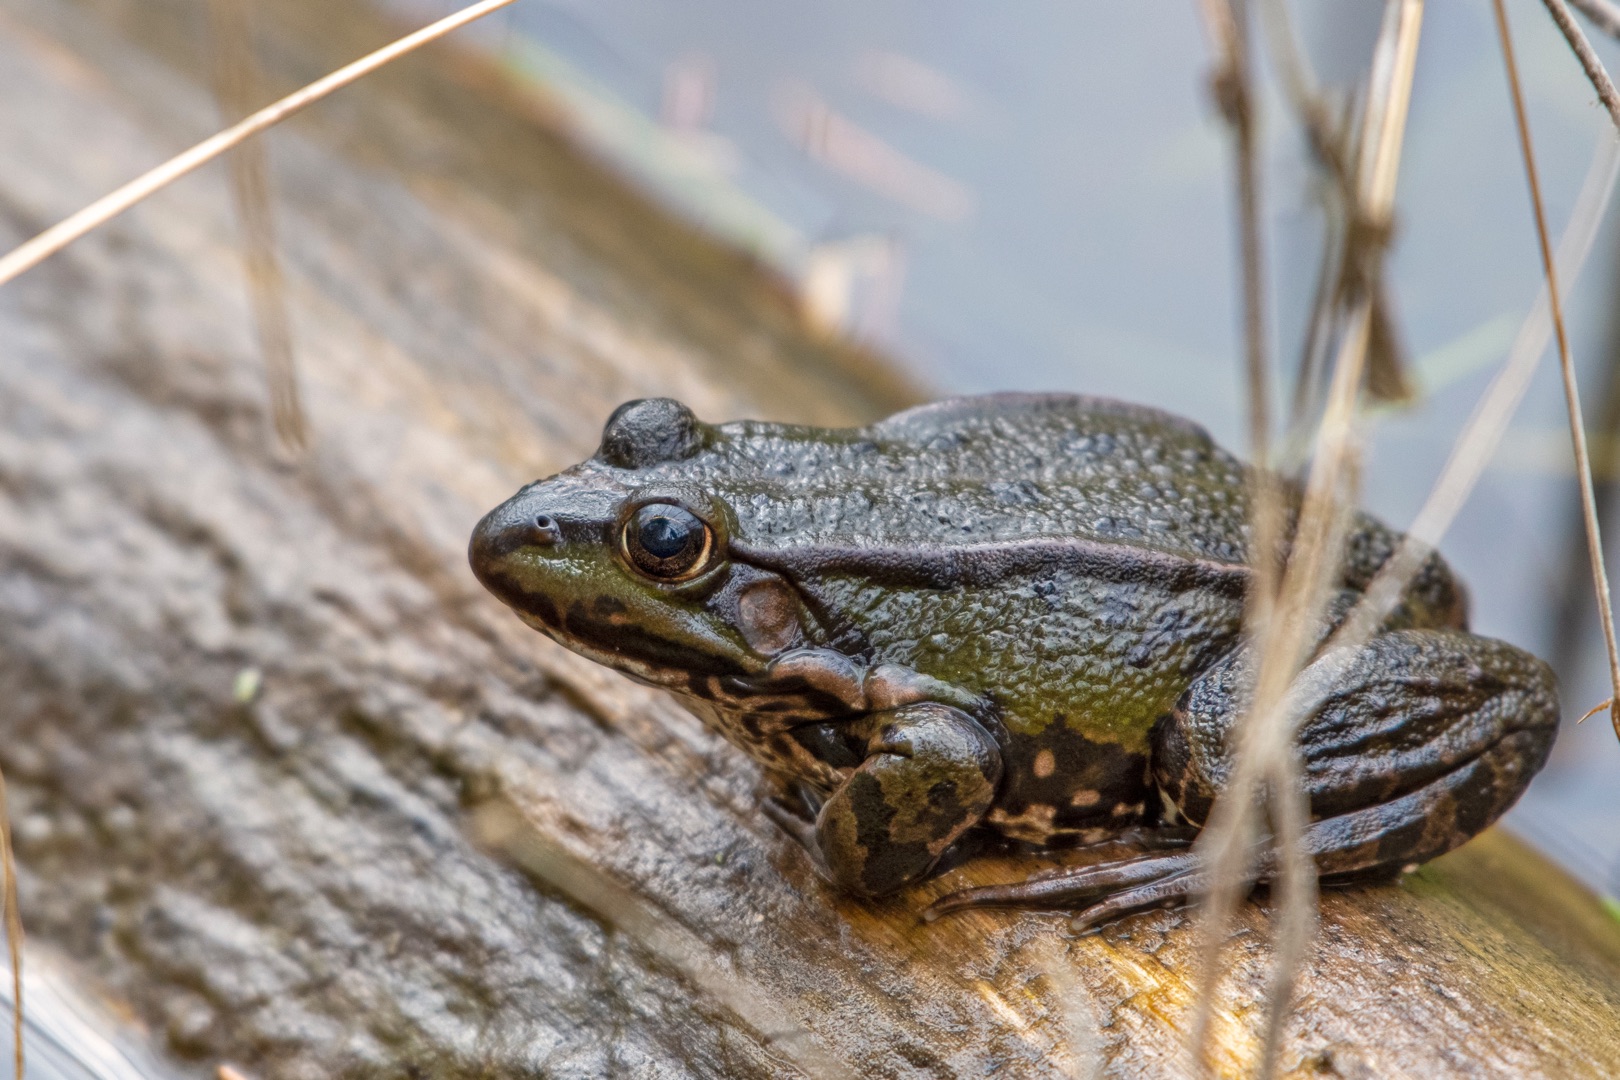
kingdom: Animalia
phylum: Chordata
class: Amphibia
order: Anura
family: Ranidae
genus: Pelophylax
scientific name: Pelophylax lessonae
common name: Grøn frø
